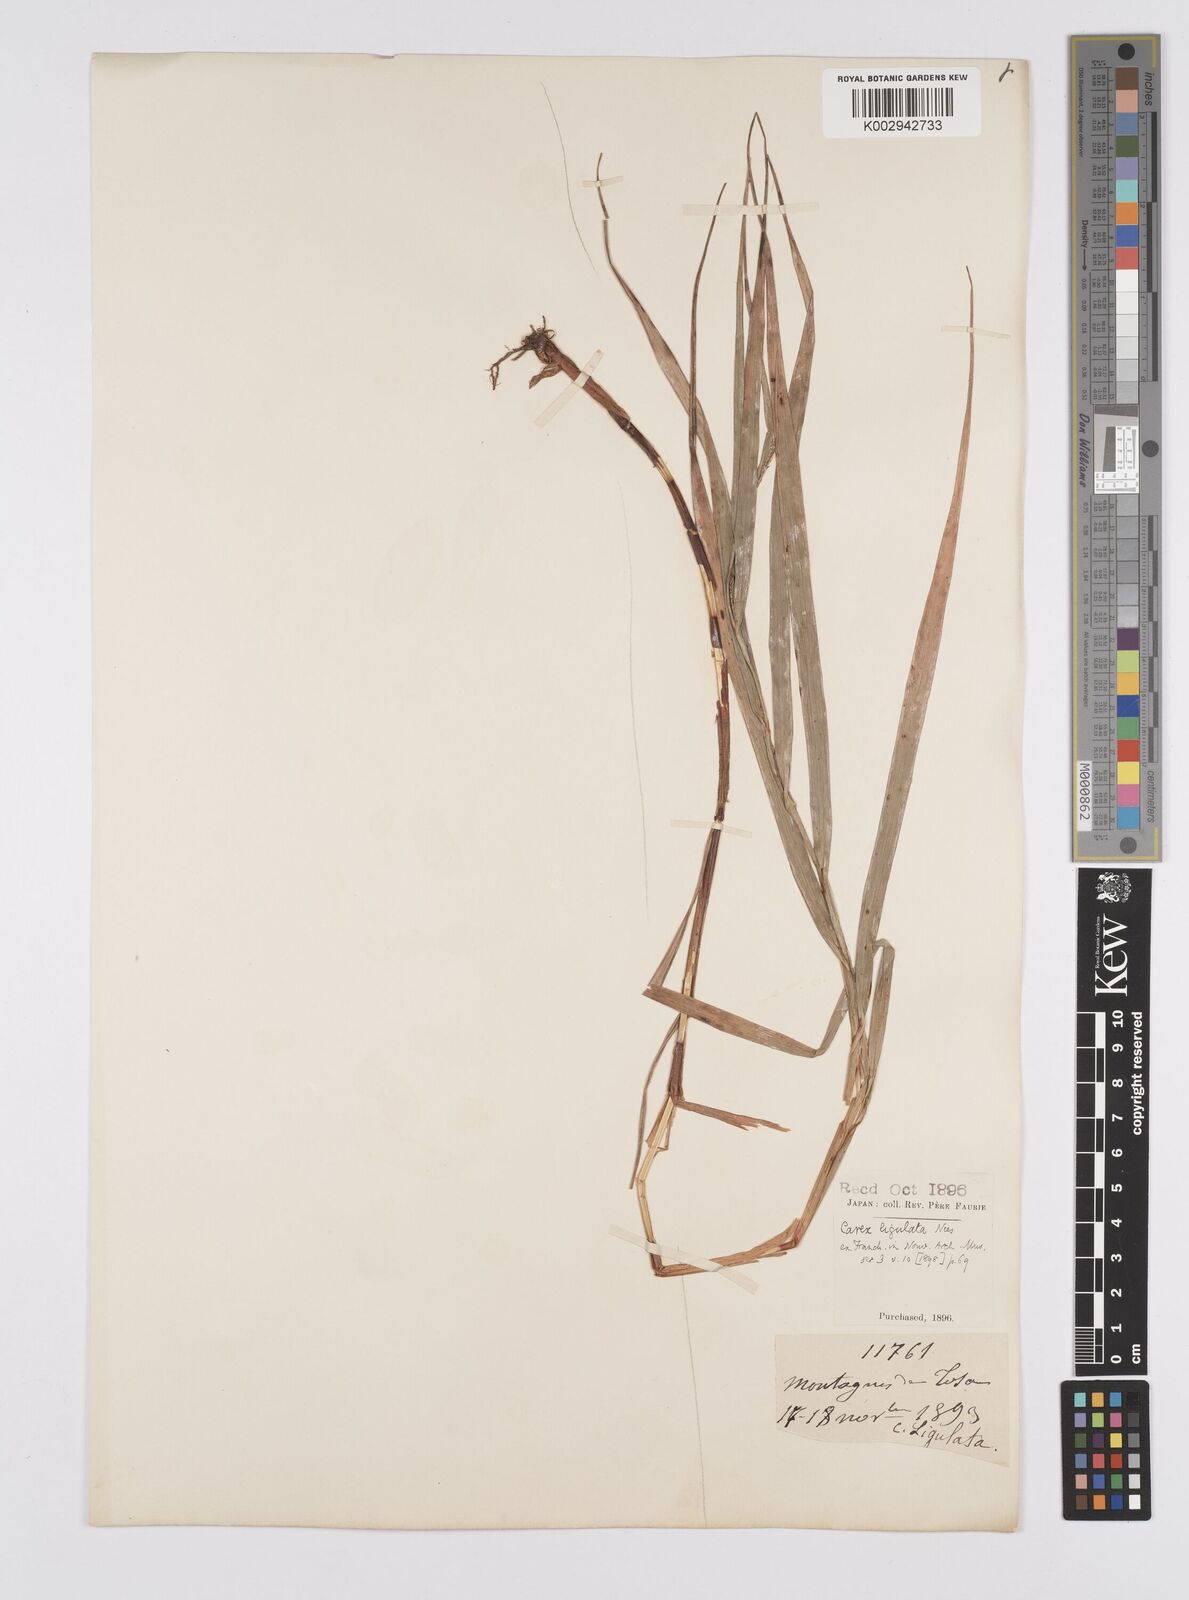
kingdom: Plantae
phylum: Tracheophyta
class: Liliopsida
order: Poales
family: Cyperaceae
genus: Carex
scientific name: Carex ligulata
